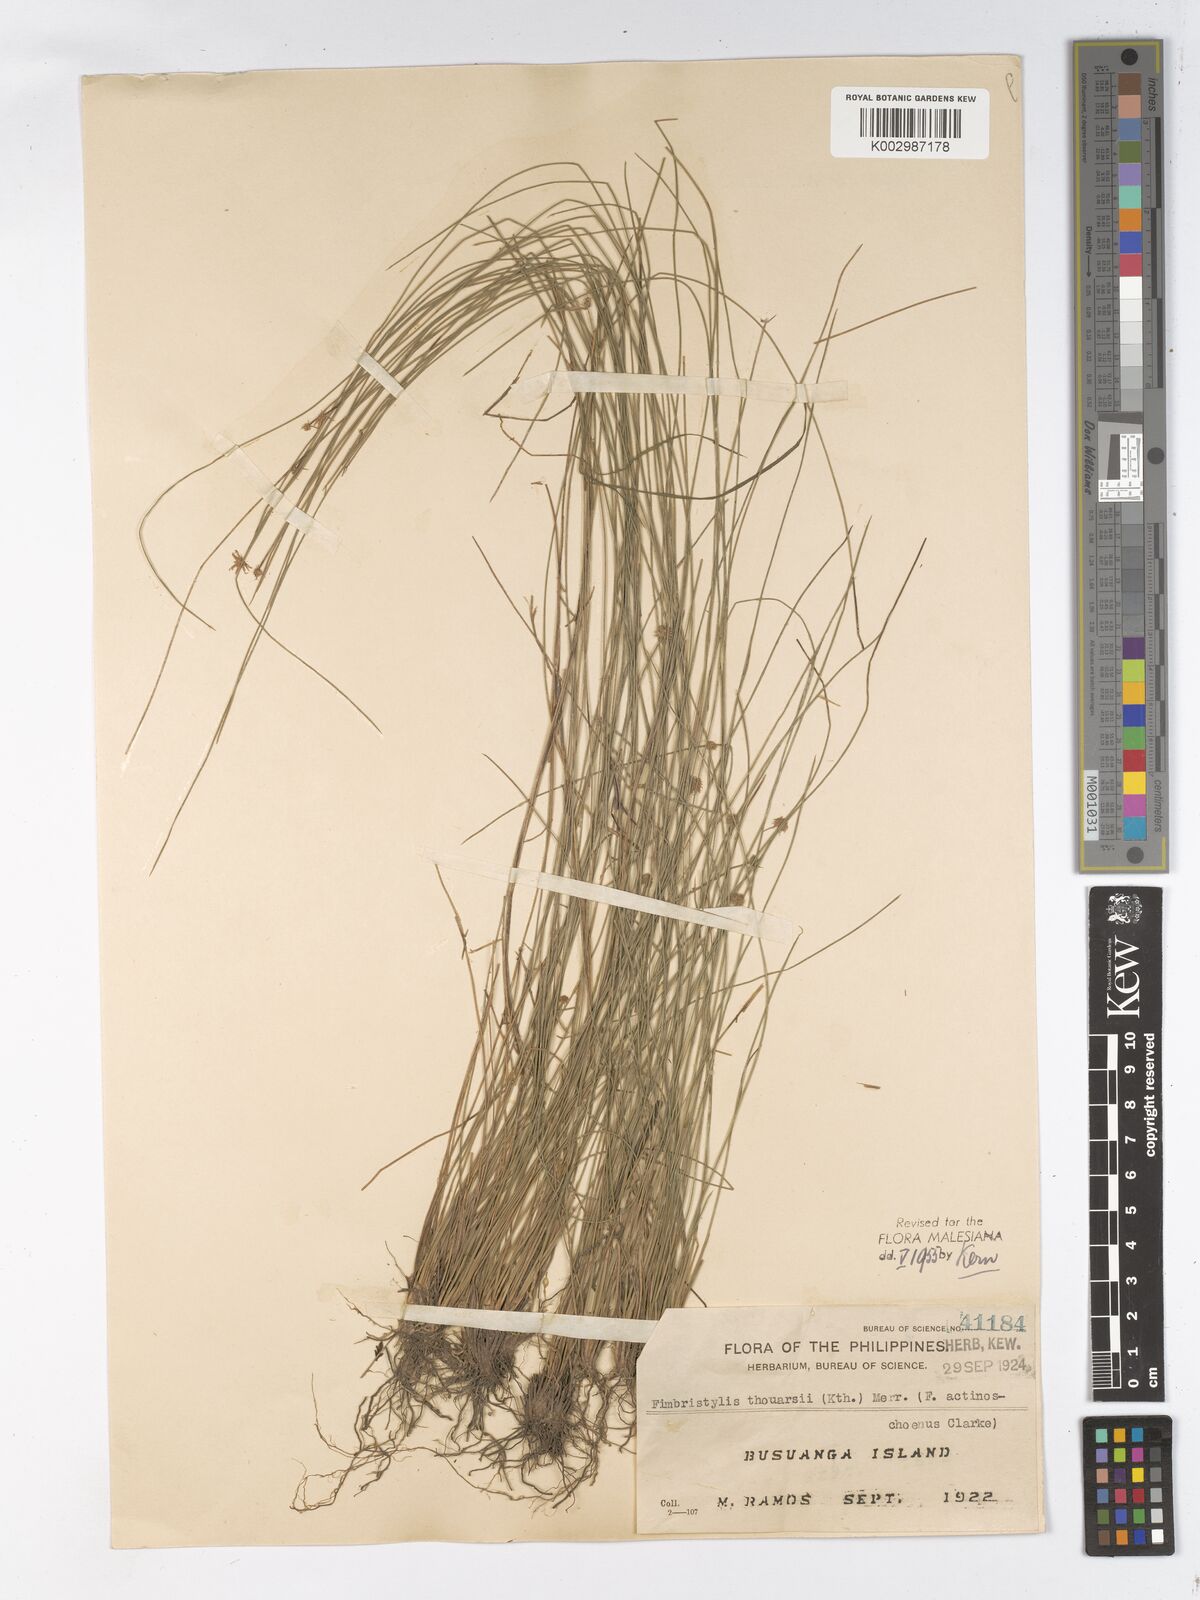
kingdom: Plantae
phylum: Tracheophyta
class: Liliopsida
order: Poales
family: Cyperaceae
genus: Actinoschoenus
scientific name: Actinoschoenus
